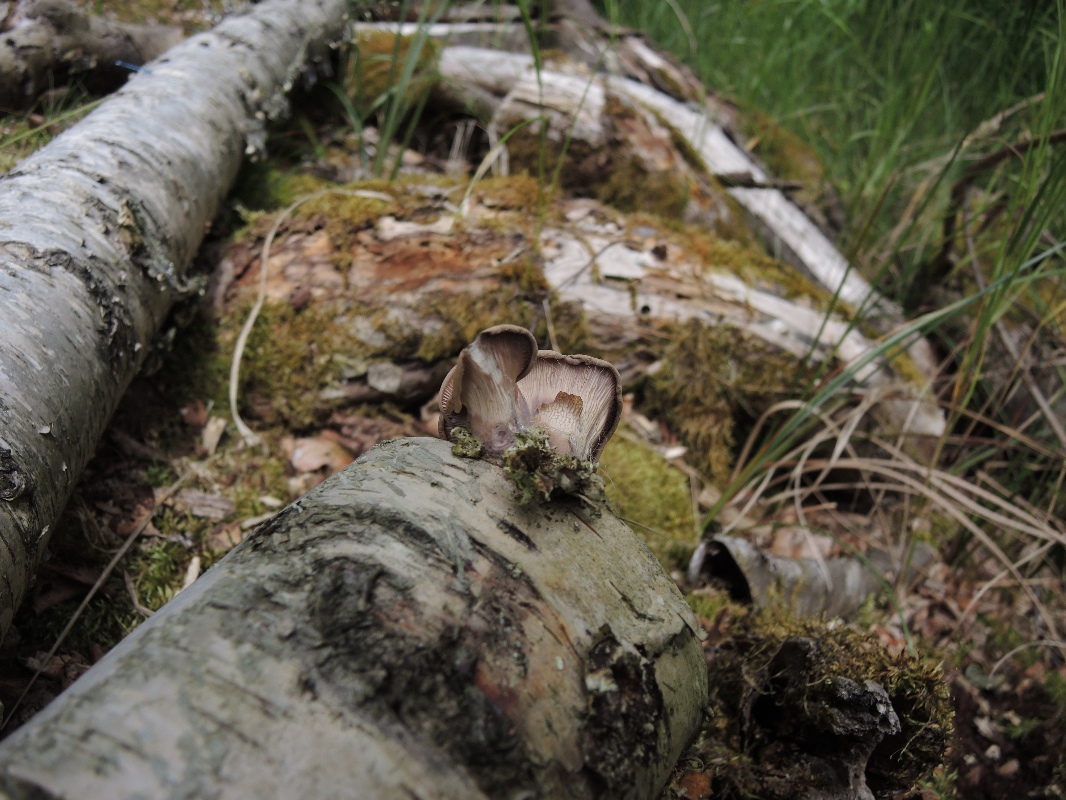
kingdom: Fungi
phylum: Basidiomycota
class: Agaricomycetes
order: Polyporales
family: Panaceae
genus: Panus
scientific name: Panus conchatus
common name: filtstokket læderhat
